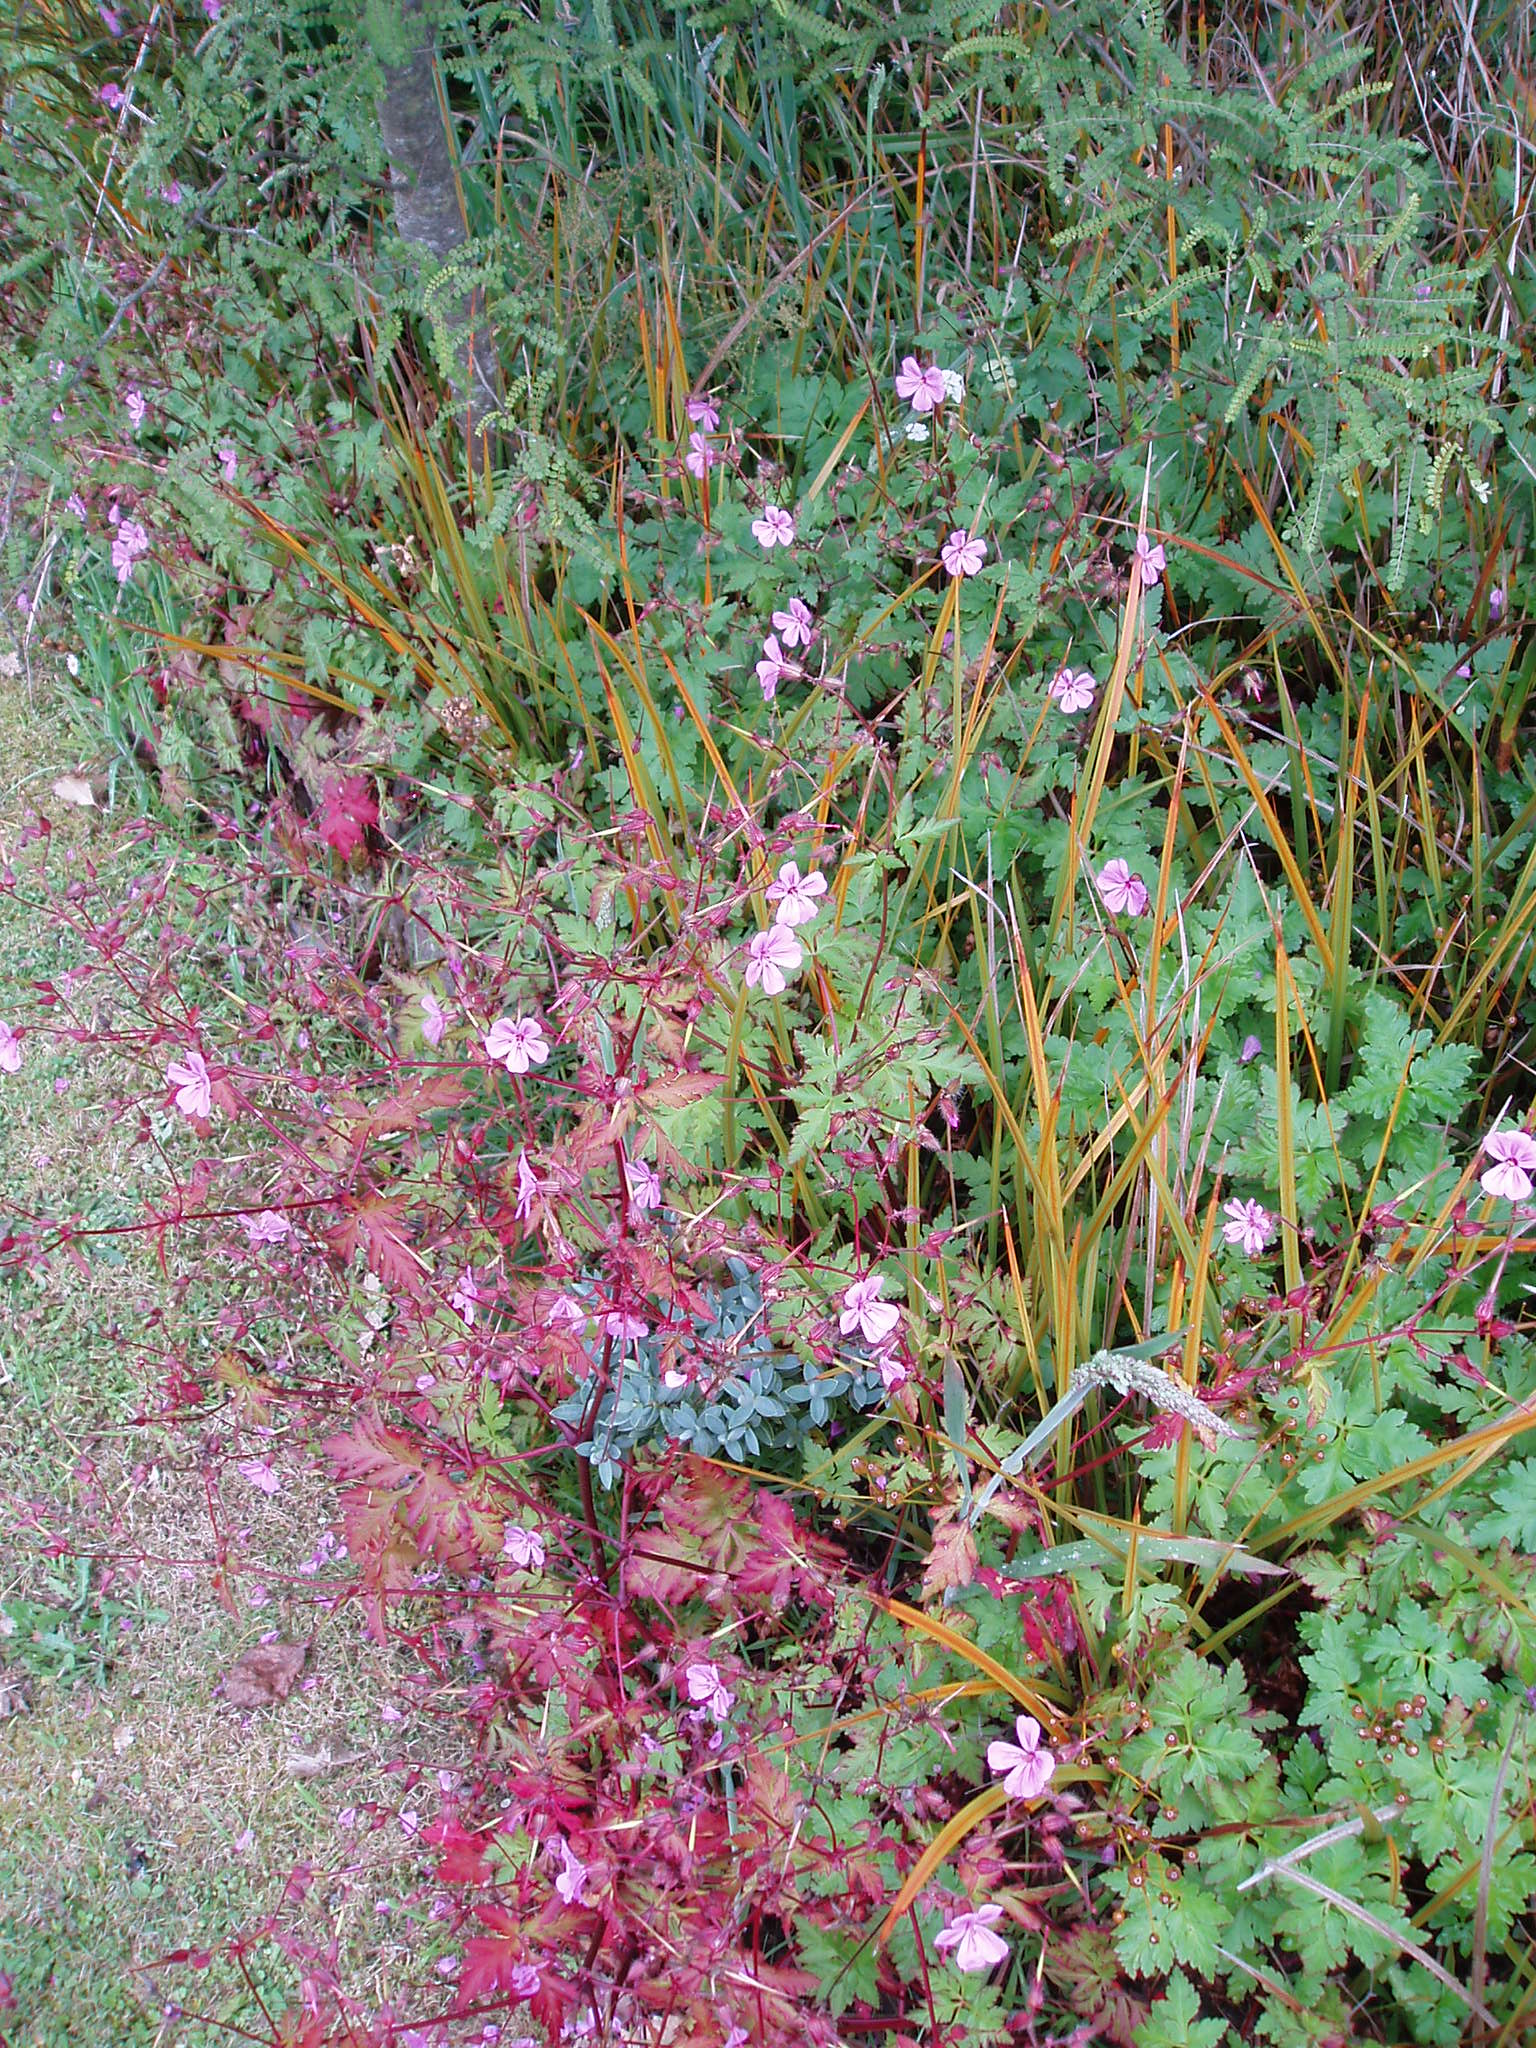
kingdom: Plantae
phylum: Tracheophyta
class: Magnoliopsida
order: Geraniales
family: Geraniaceae
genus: Geranium
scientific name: Geranium yeoi
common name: Greater herb robert
